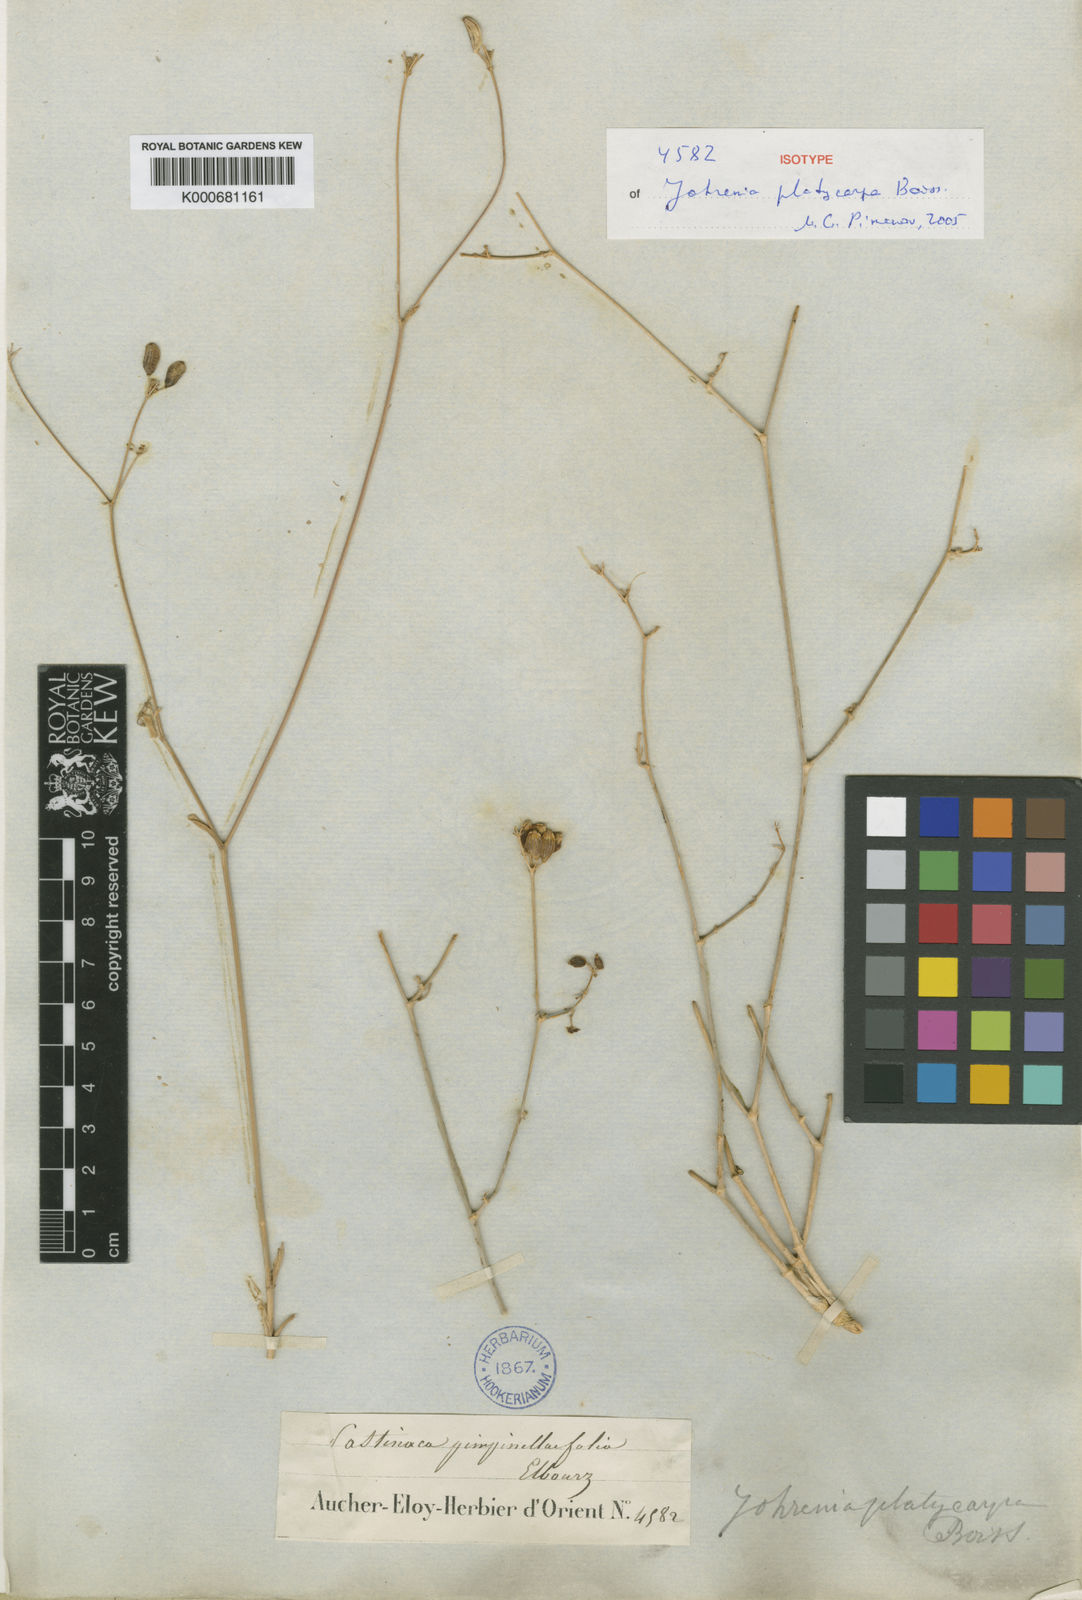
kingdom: Plantae
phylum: Tracheophyta
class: Magnoliopsida
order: Apiales
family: Apiaceae
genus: Dichoropetalum
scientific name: Dichoropetalum platycarpum
